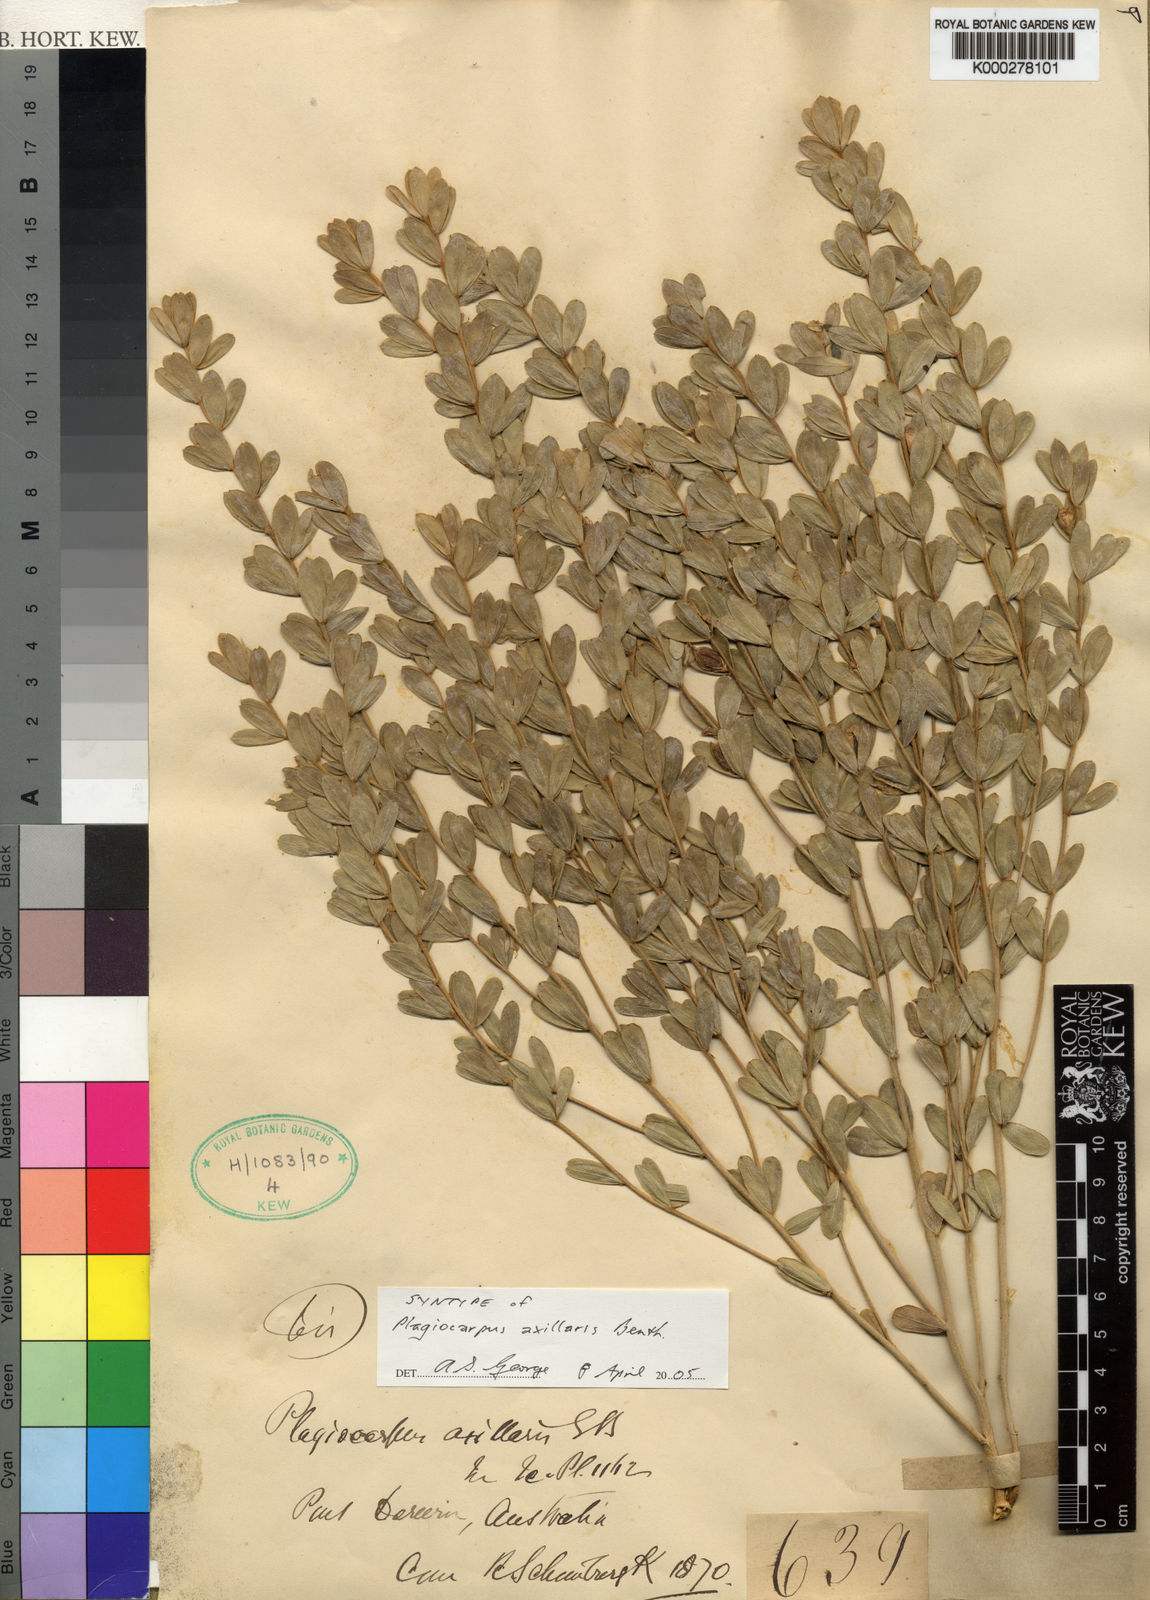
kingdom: Plantae
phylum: Tracheophyta
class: Magnoliopsida
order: Fabales
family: Fabaceae
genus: Plagiocarpus
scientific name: Plagiocarpus axillaris
